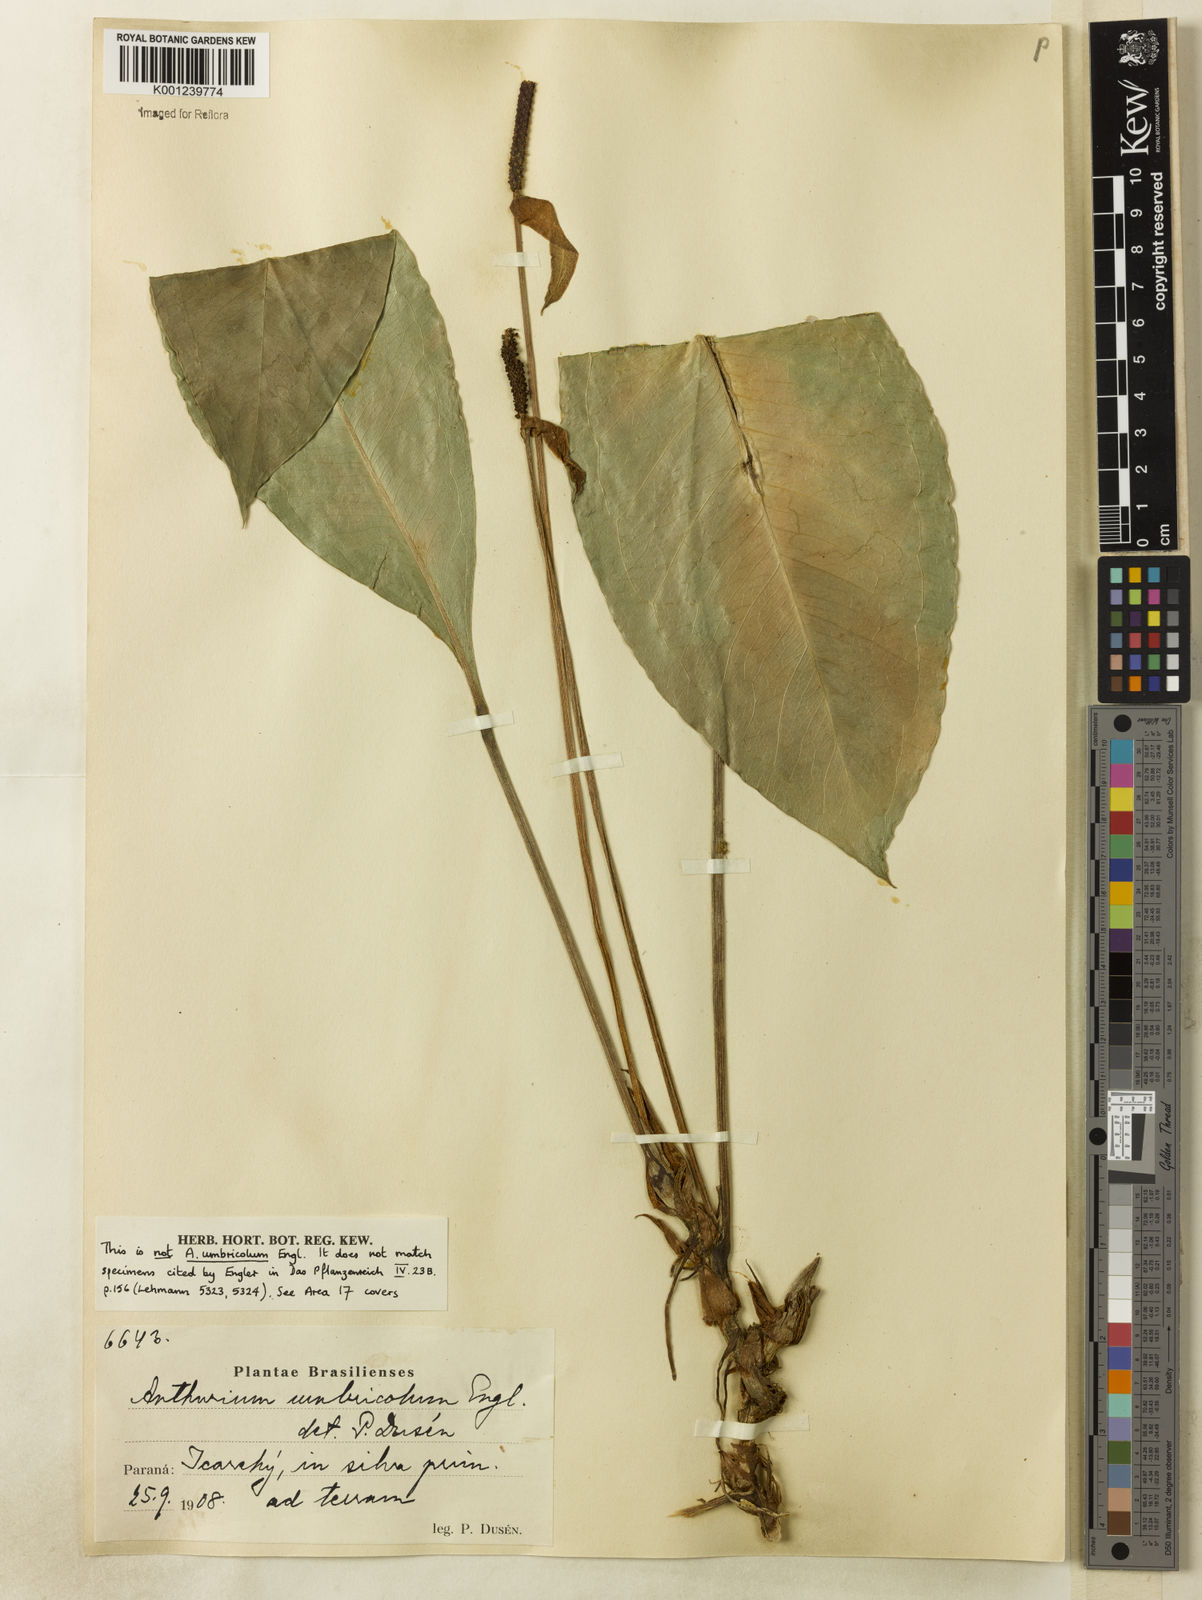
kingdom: Plantae
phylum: Tracheophyta
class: Liliopsida
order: Alismatales
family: Araceae
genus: Anthurium
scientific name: Anthurium
